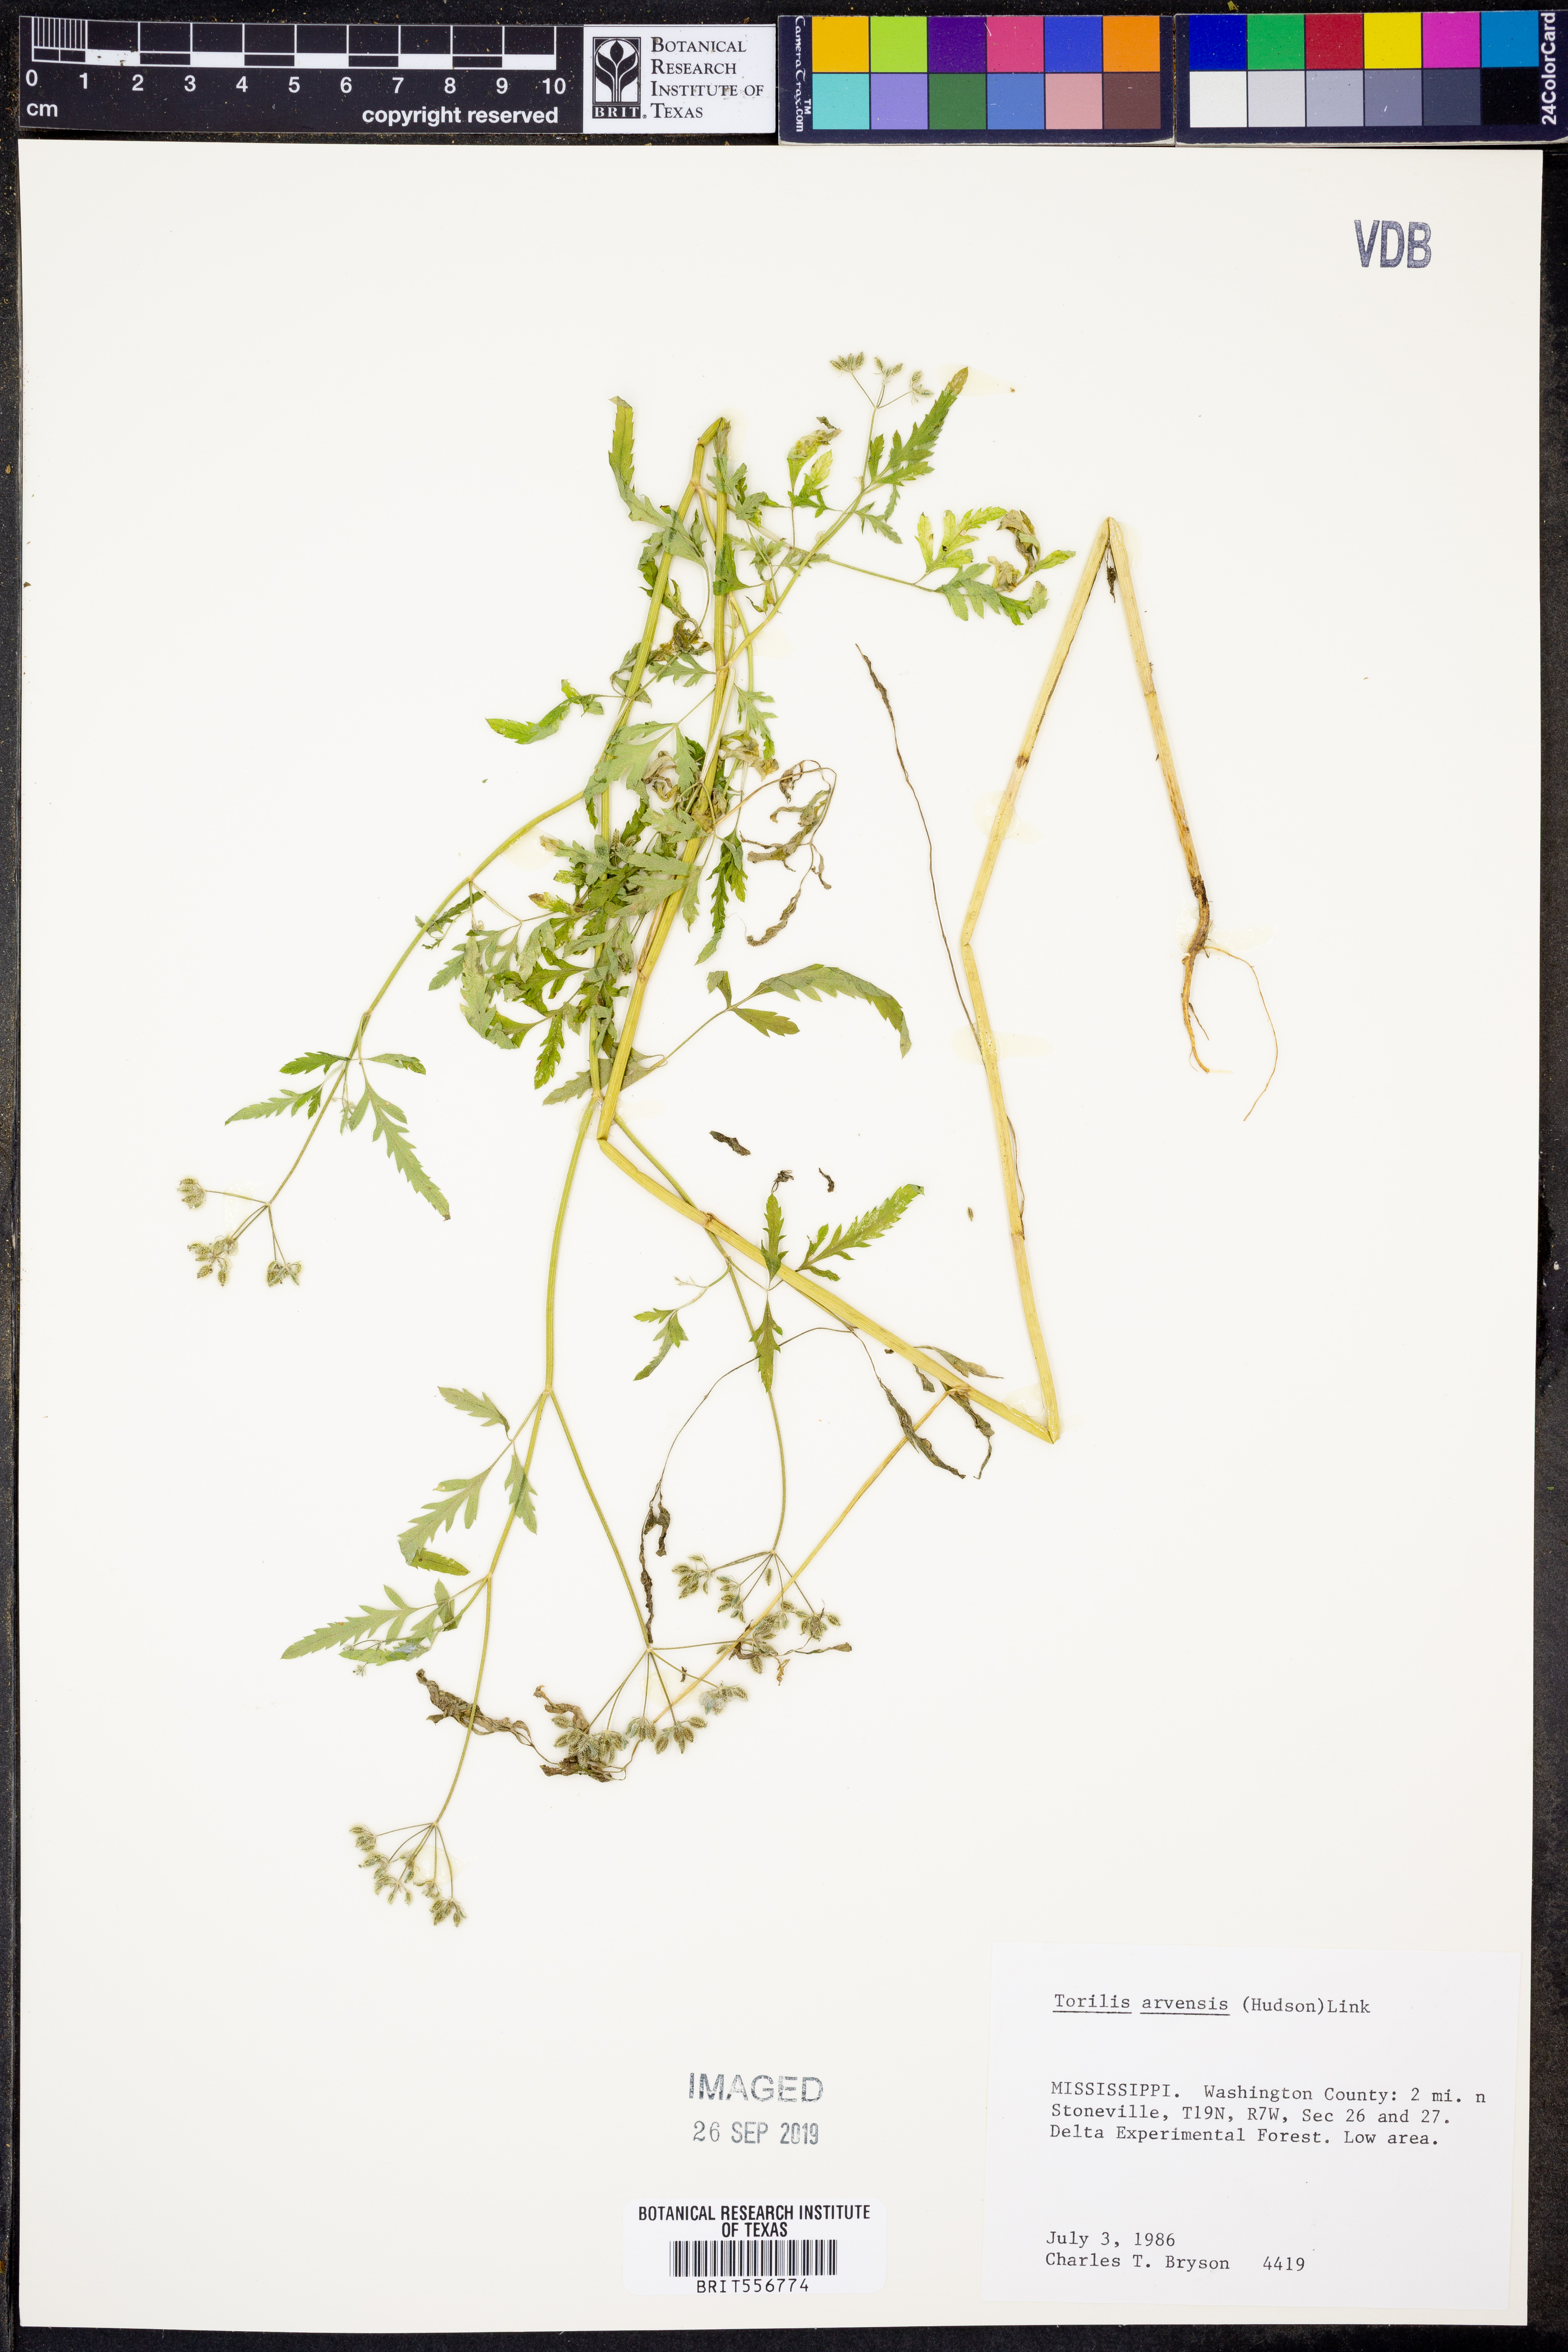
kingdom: Plantae
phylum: Tracheophyta
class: Magnoliopsida
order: Apiales
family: Apiaceae
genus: Torilis
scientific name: Torilis arvensis
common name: Spreading hedge-parsley
